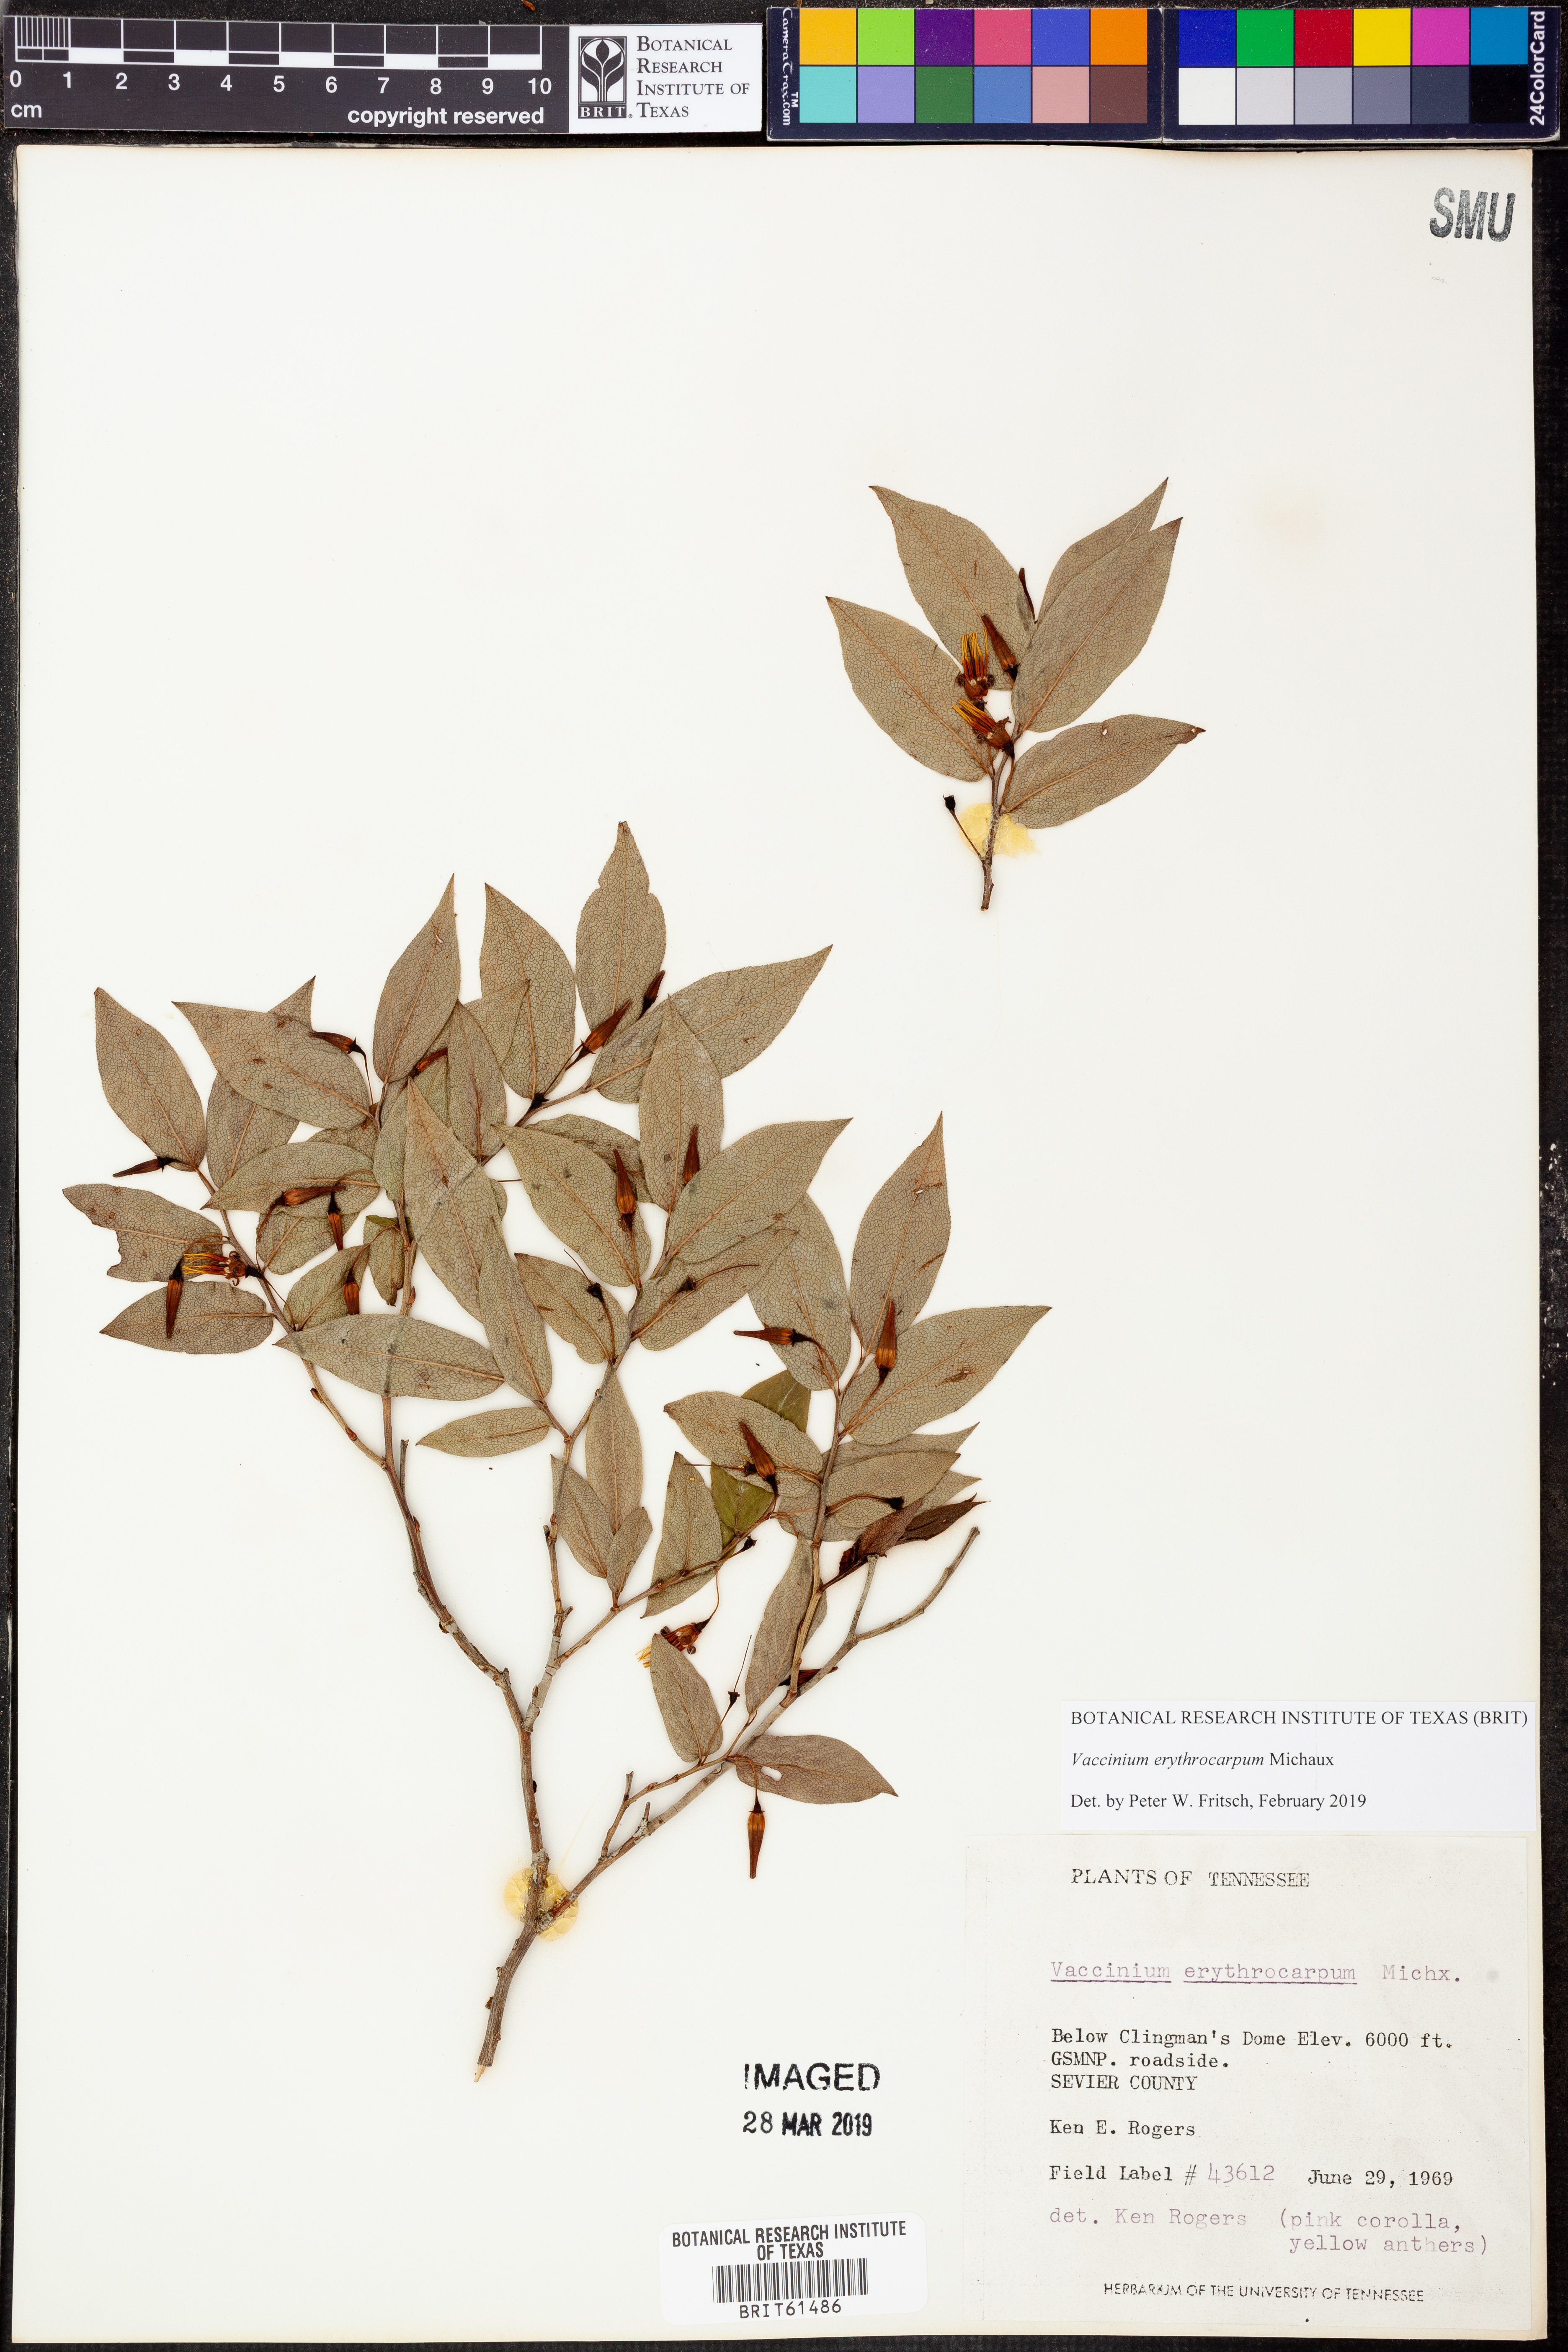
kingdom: Plantae
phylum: Tracheophyta
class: Magnoliopsida
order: Ericales
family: Ericaceae
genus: Vaccinium
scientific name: Vaccinium erythrocarpum
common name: Bearberry
